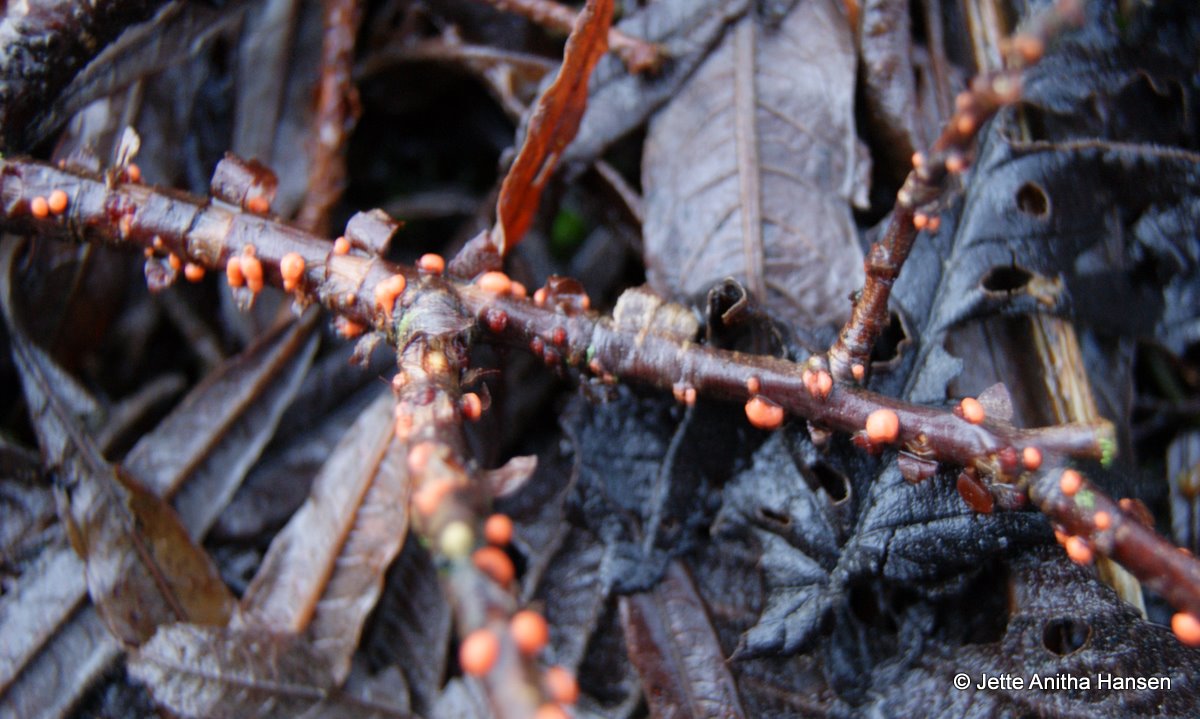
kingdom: Fungi
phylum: Ascomycota
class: Sordariomycetes
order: Hypocreales
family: Nectriaceae
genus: Nectria
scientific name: Nectria cinnabarina
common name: almindelig cinnobersvamp
